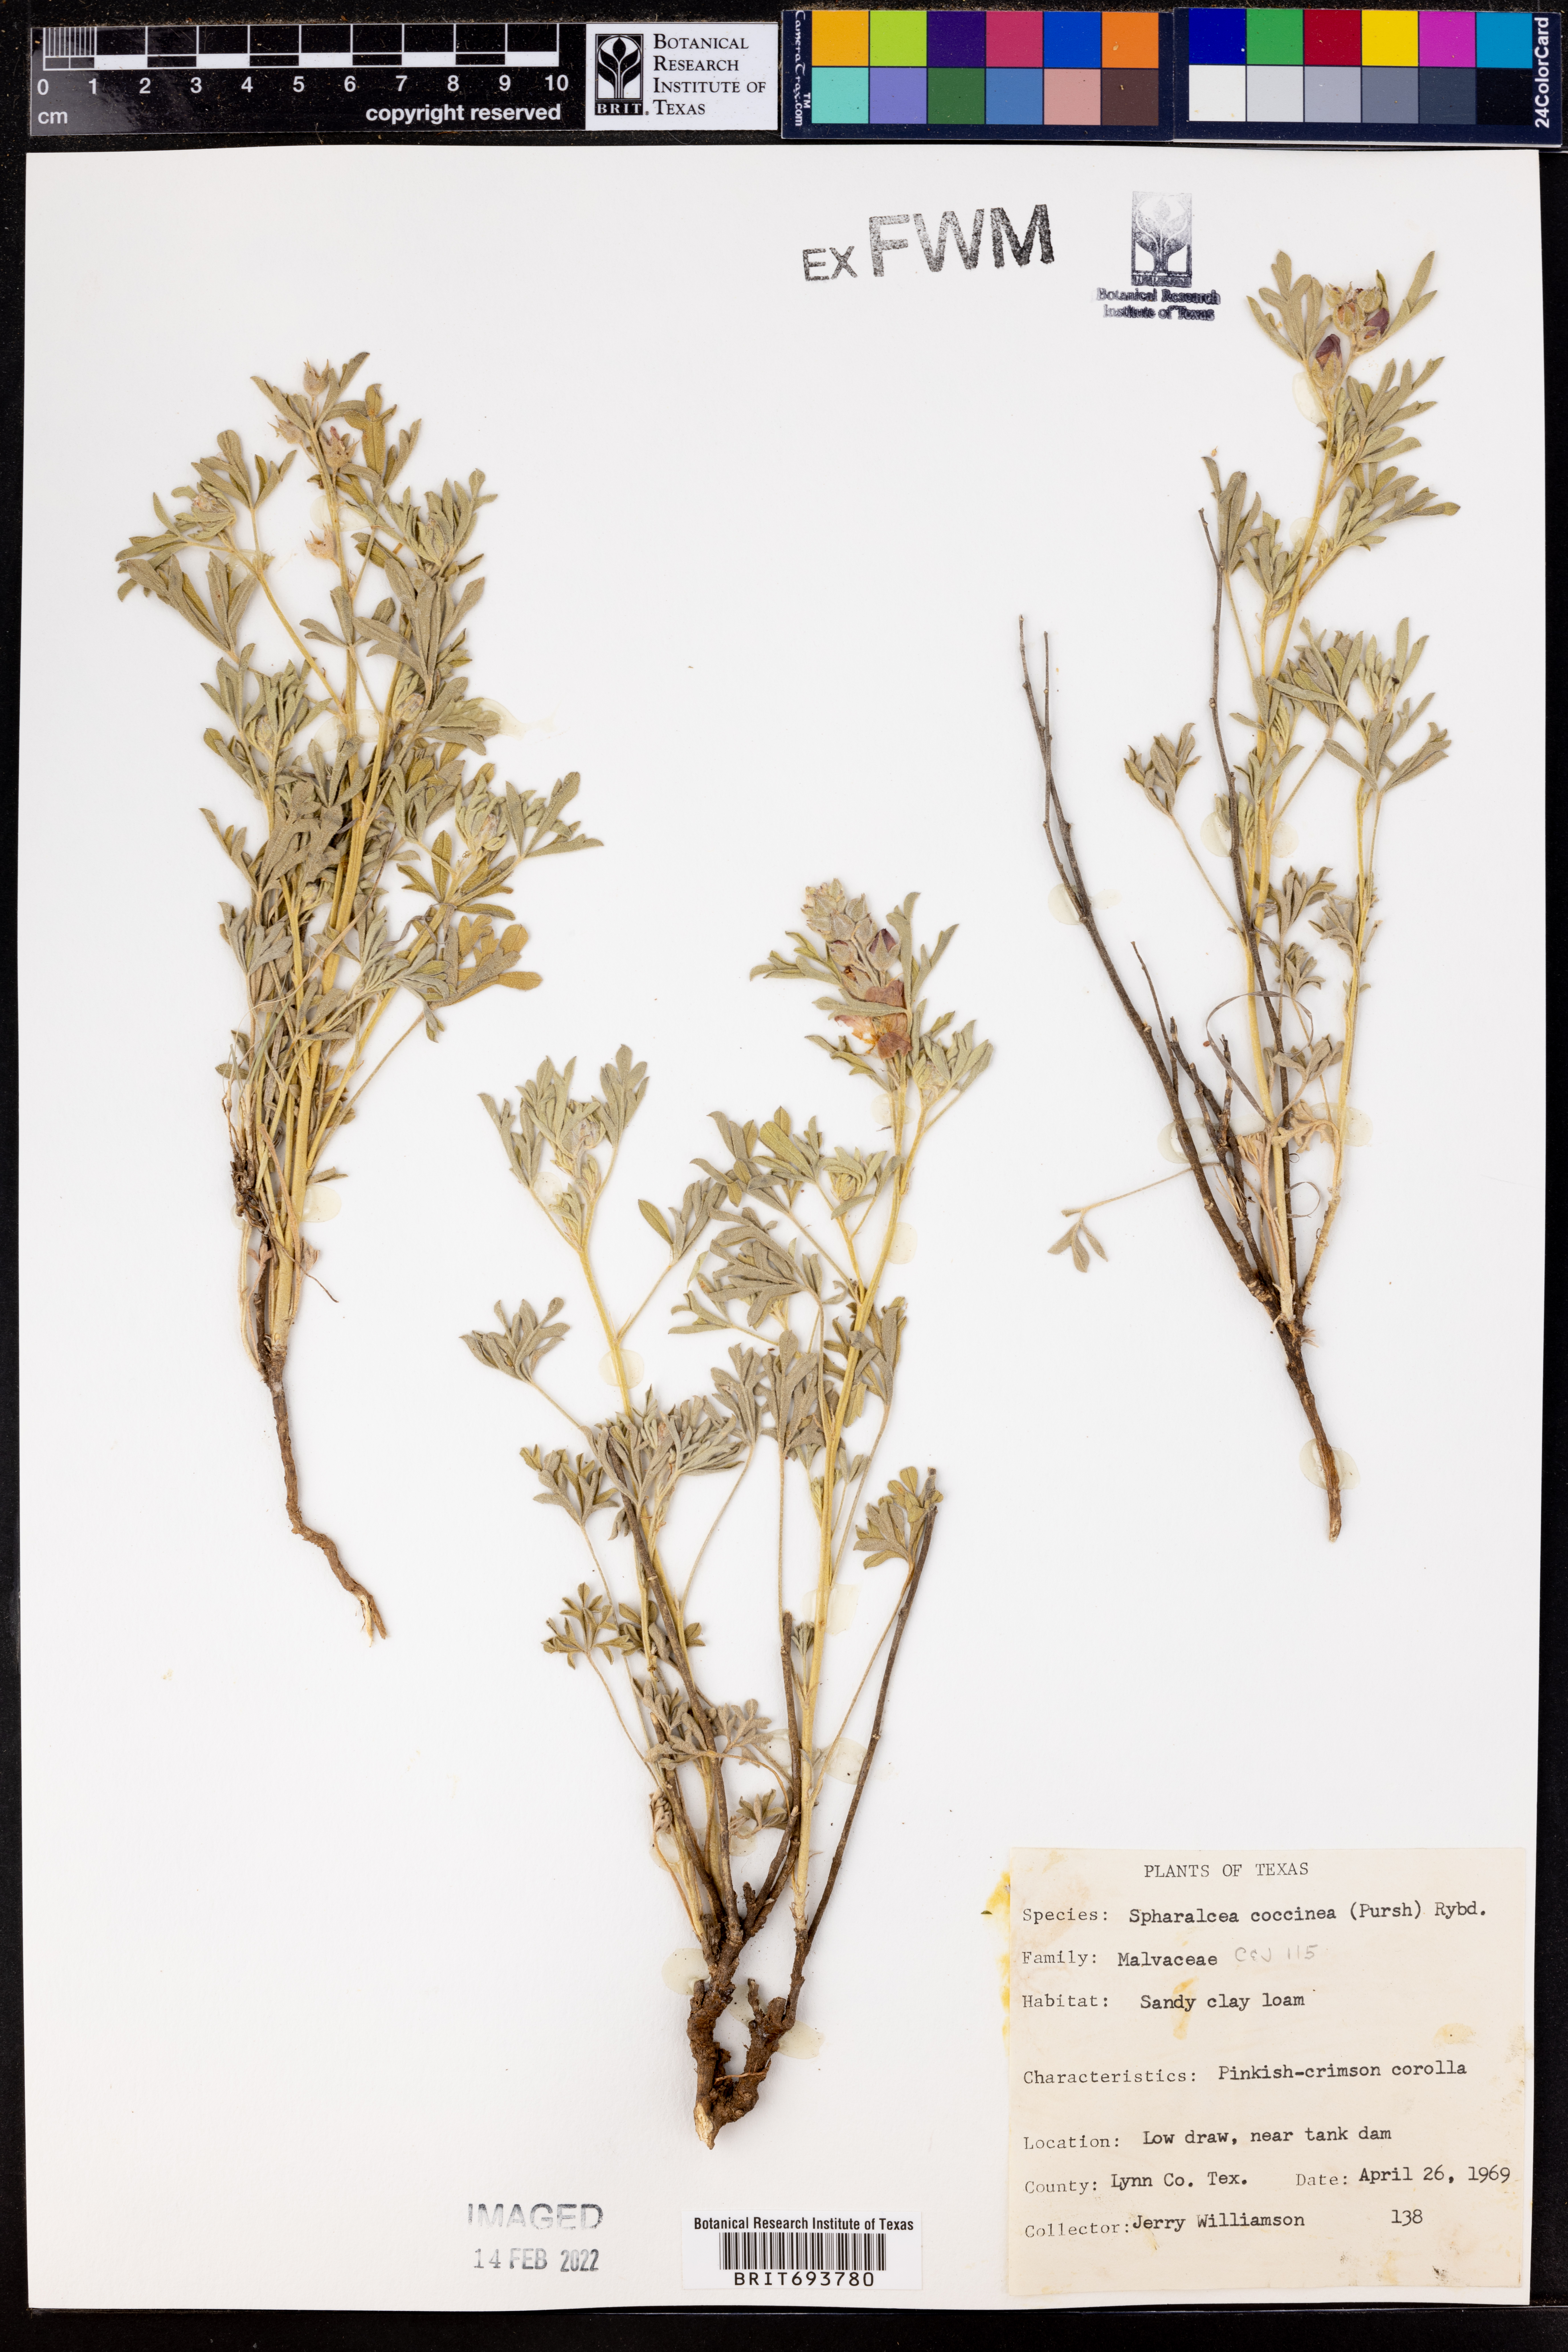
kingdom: Plantae
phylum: Tracheophyta
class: Magnoliopsida
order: Malvales
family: Malvaceae
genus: Sphaeralcea
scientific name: Sphaeralcea coccinea
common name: Moss-rose
